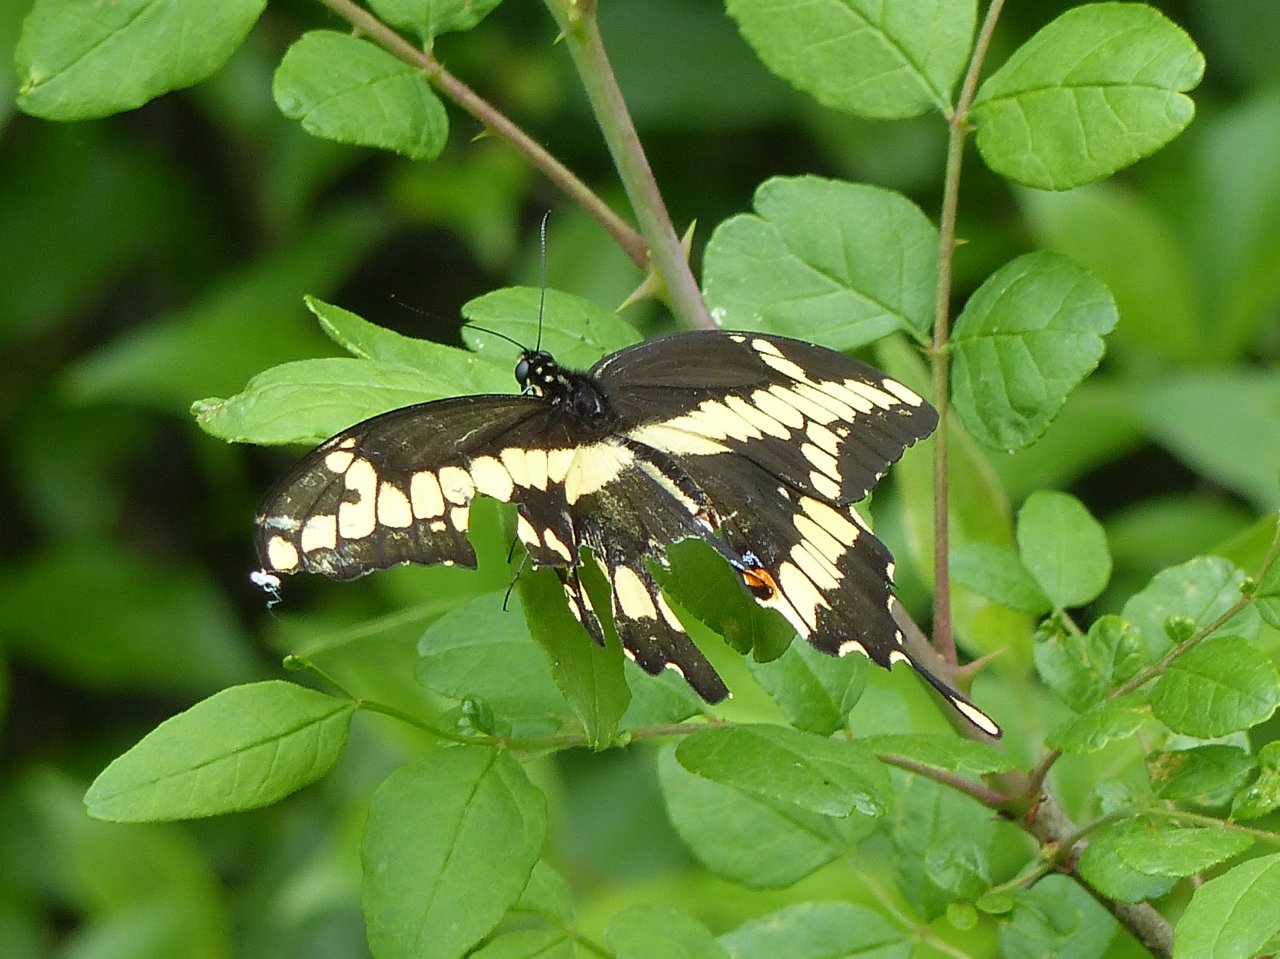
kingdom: Animalia
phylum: Arthropoda
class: Insecta
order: Lepidoptera
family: Papilionidae
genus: Papilio
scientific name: Papilio cresphontes
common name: Eastern Giant Swallowtail
